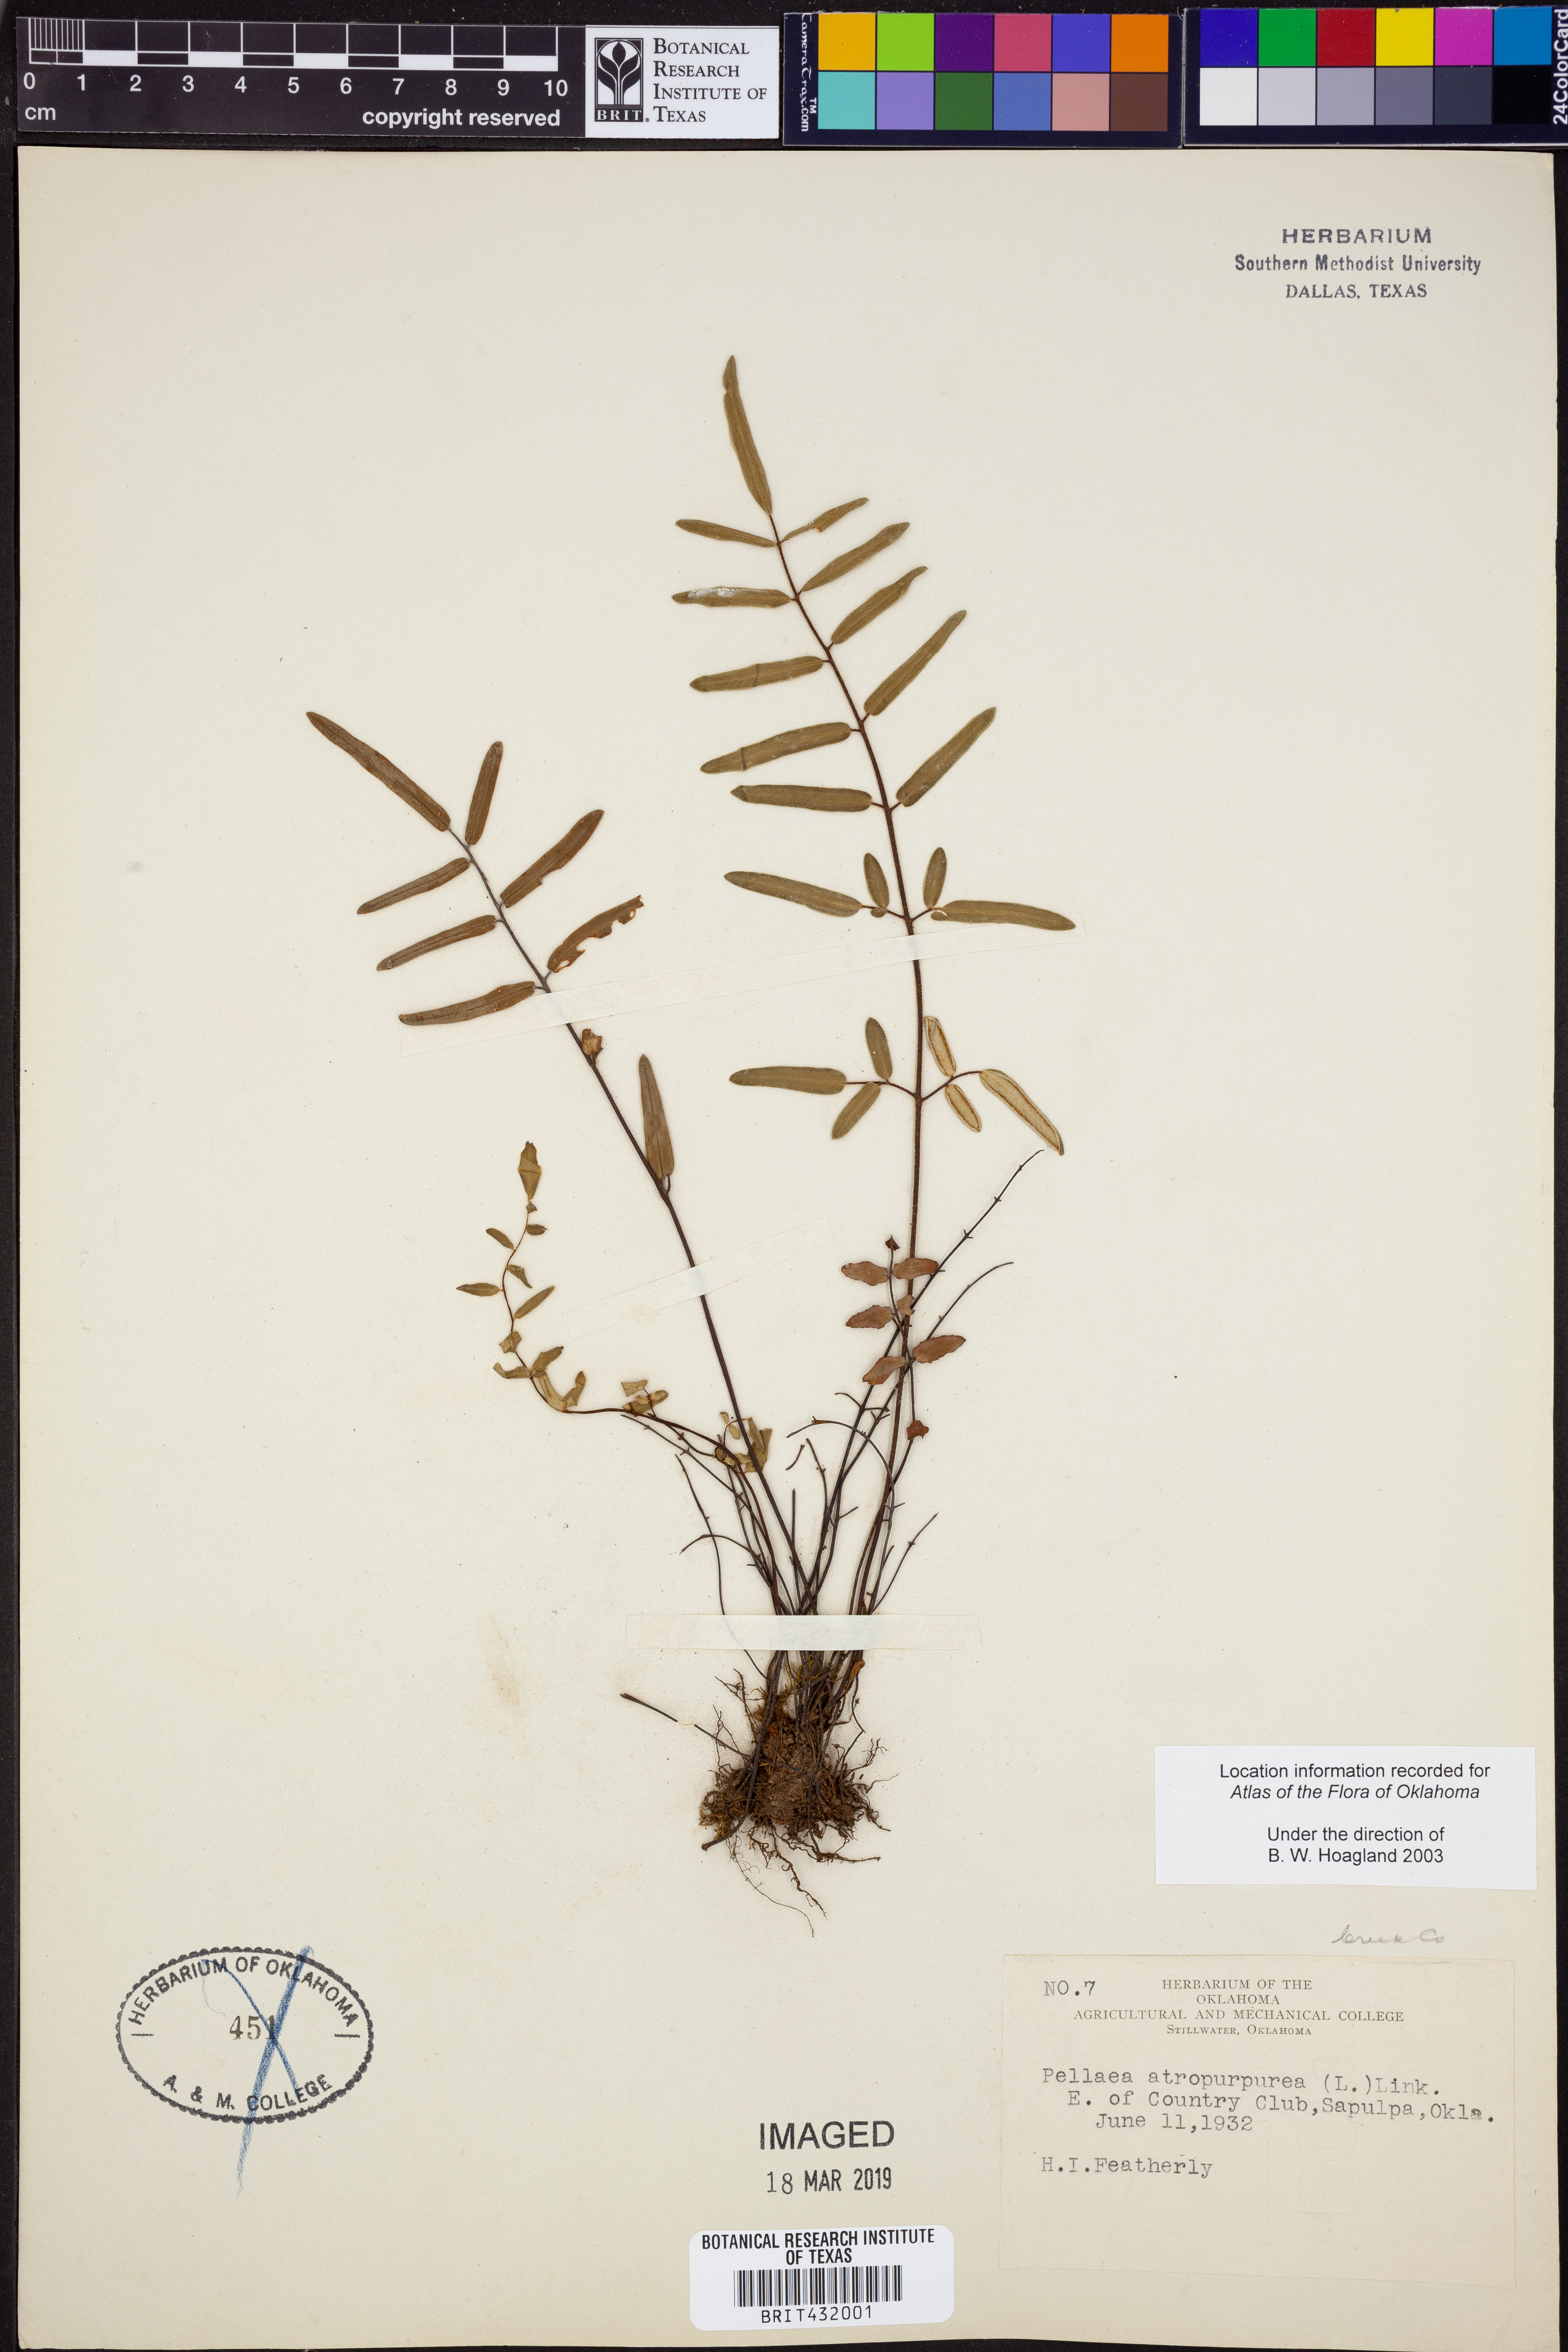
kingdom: Plantae
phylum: Tracheophyta
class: Polypodiopsida
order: Polypodiales
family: Pteridaceae
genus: Pellaea
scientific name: Pellaea atropurpurea
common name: Hairy cliffbrake
